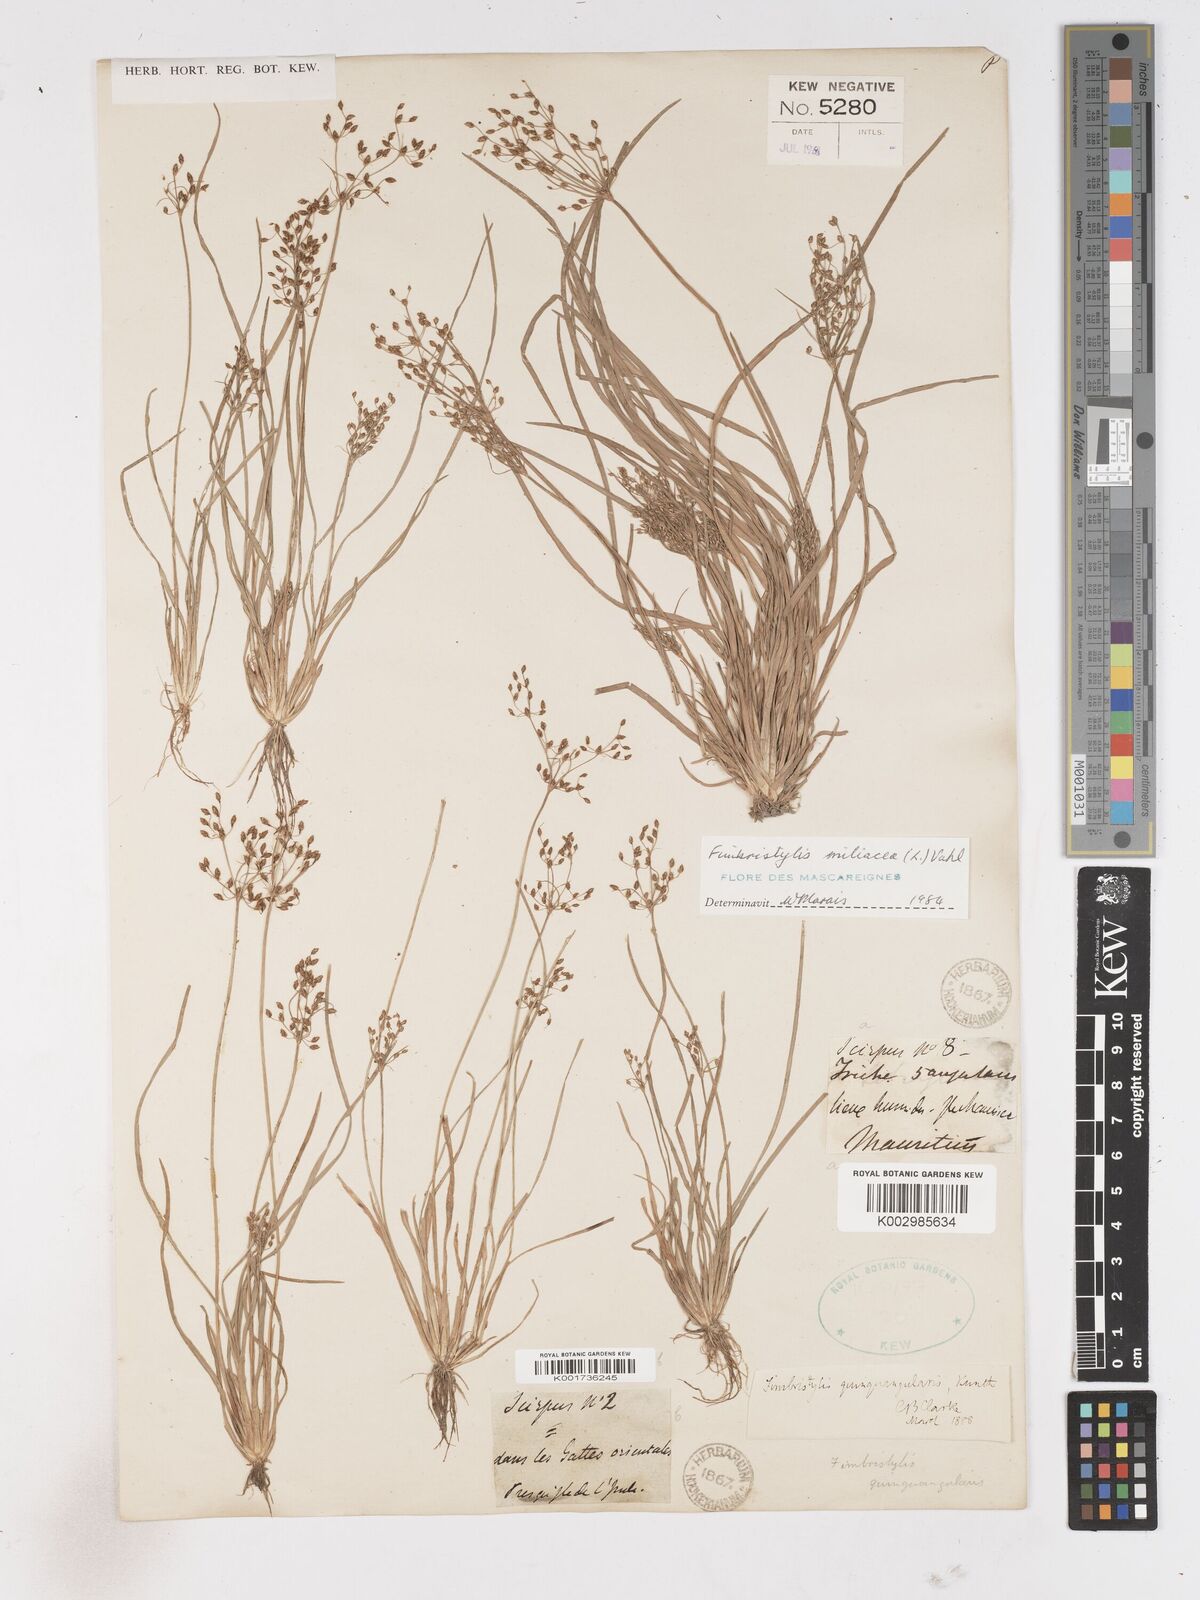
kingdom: Plantae
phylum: Tracheophyta
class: Liliopsida
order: Poales
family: Cyperaceae
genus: Fimbristylis
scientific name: Fimbristylis littoralis
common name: Fimbry
